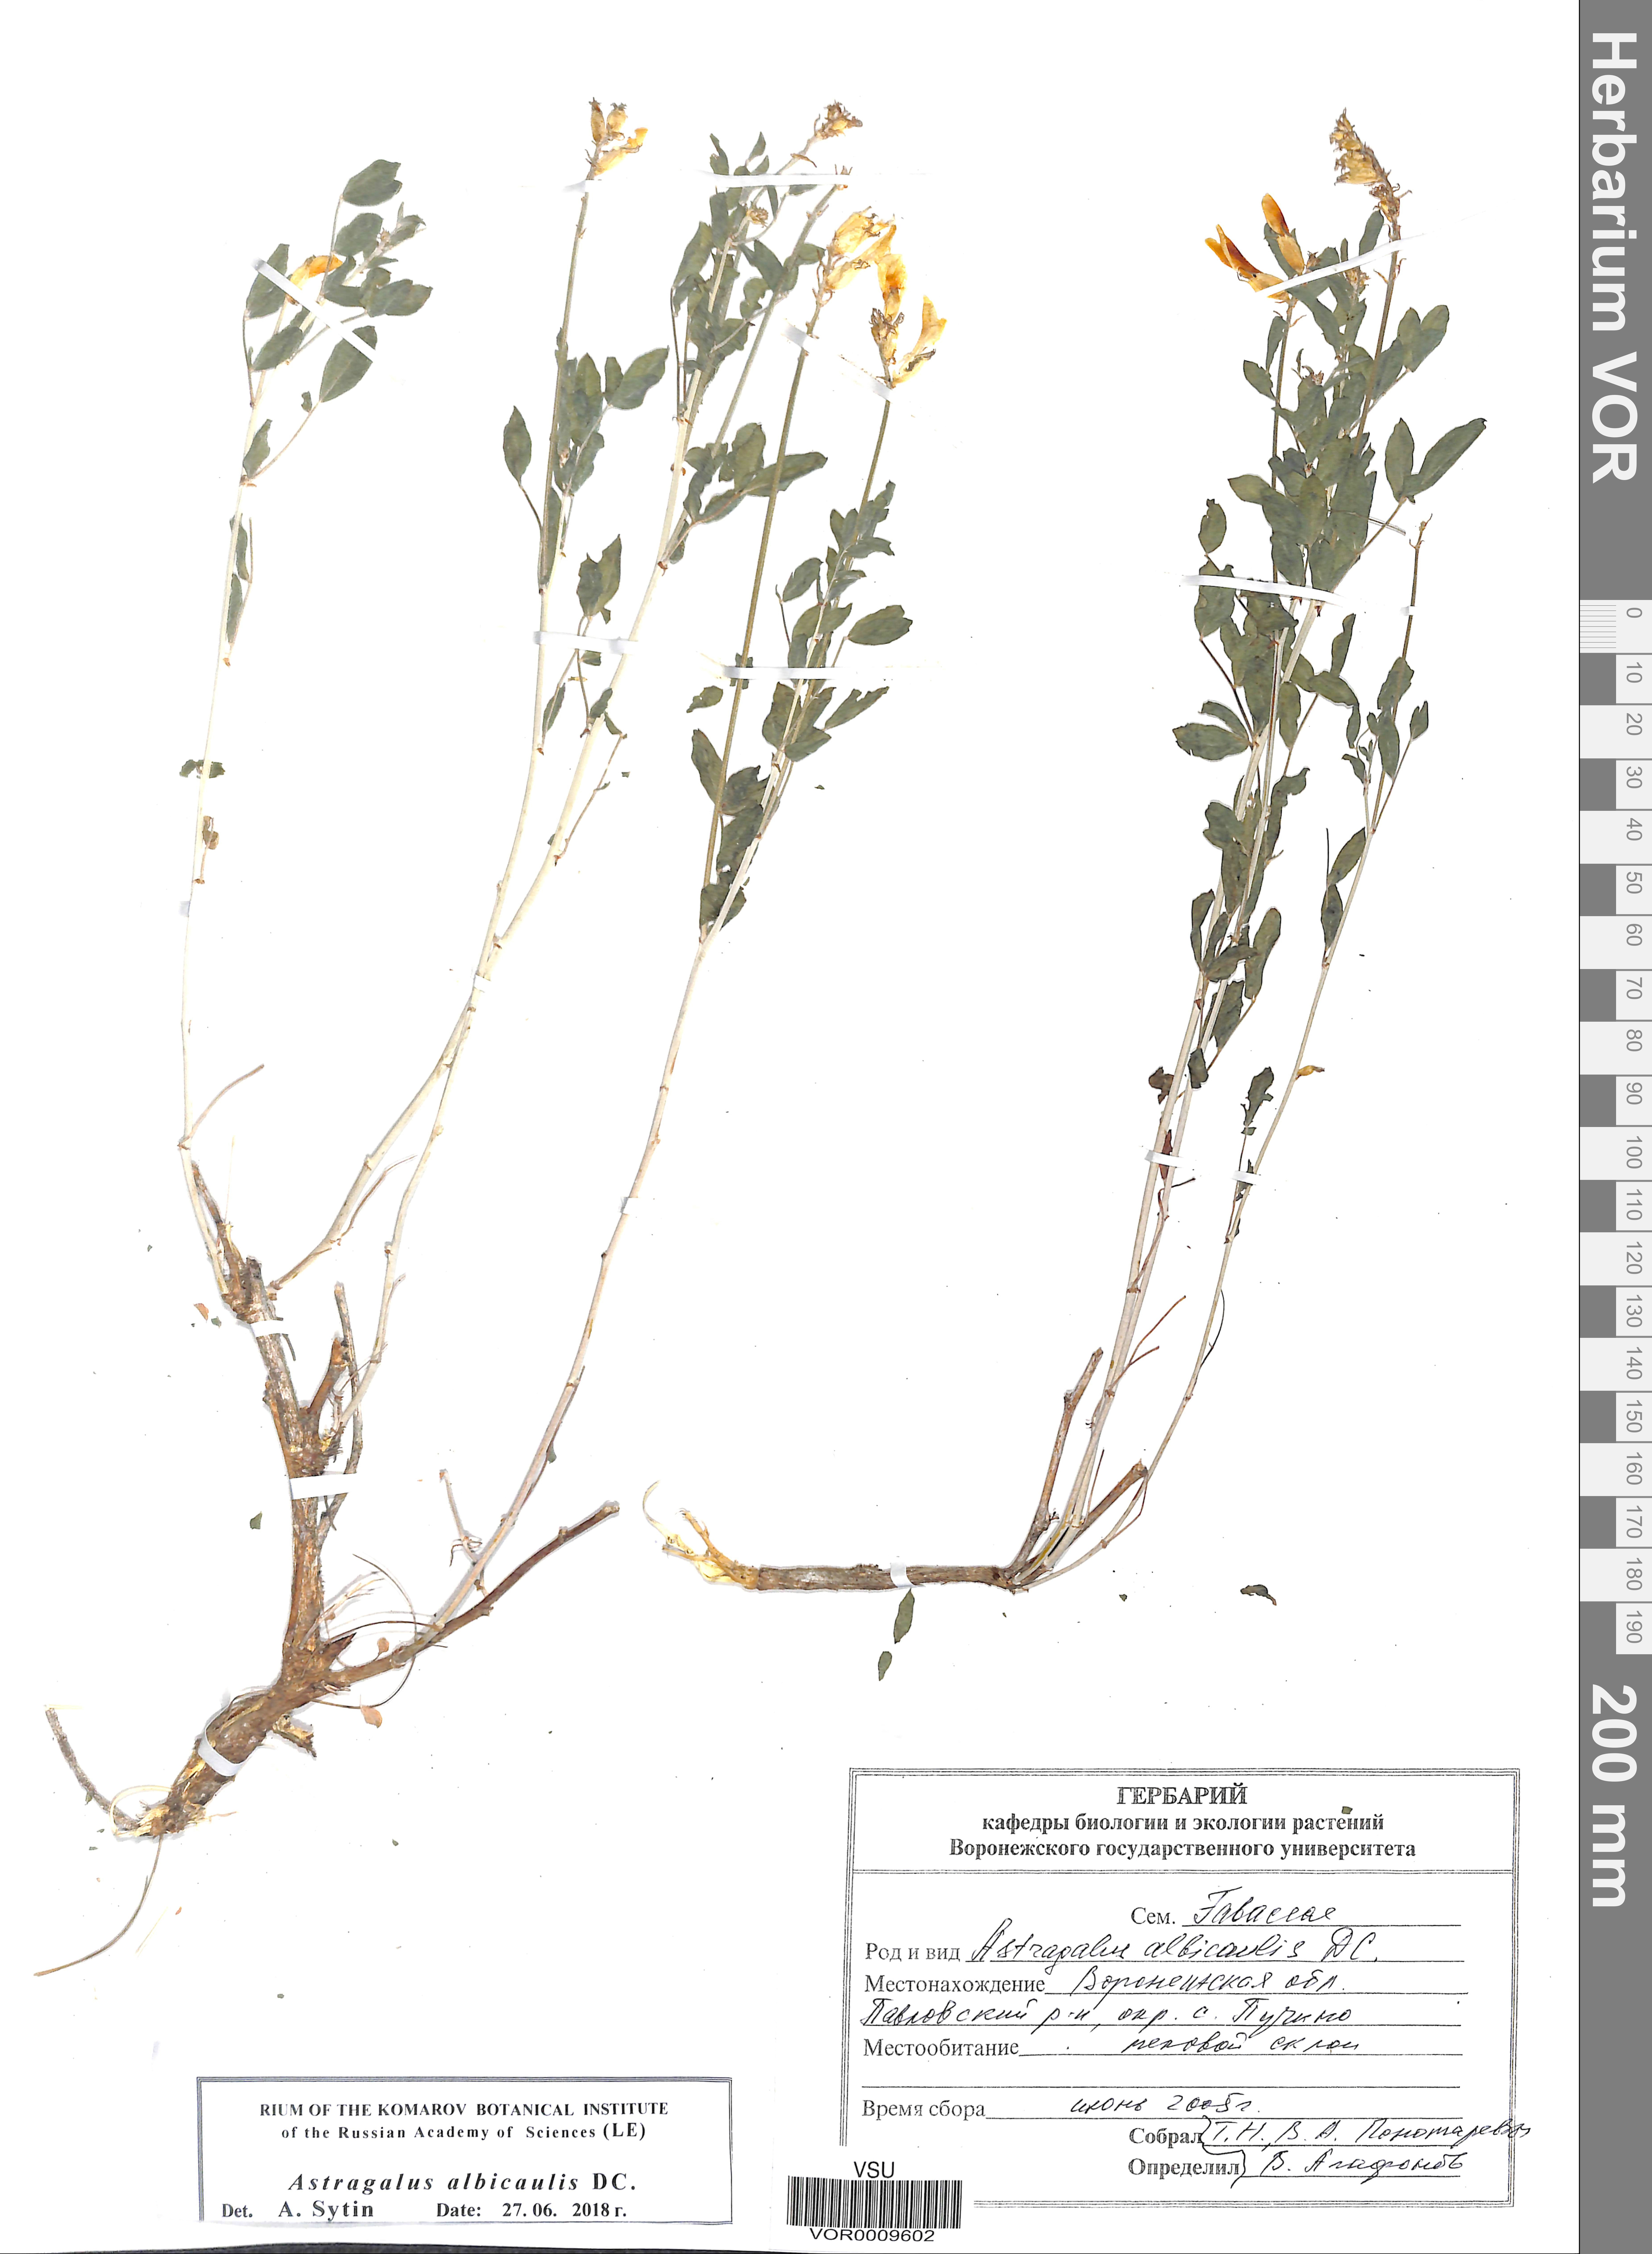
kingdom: Plantae
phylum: Tracheophyta
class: Magnoliopsida
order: Fabales
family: Fabaceae
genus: Astragalus
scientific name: Astragalus albicaulis
